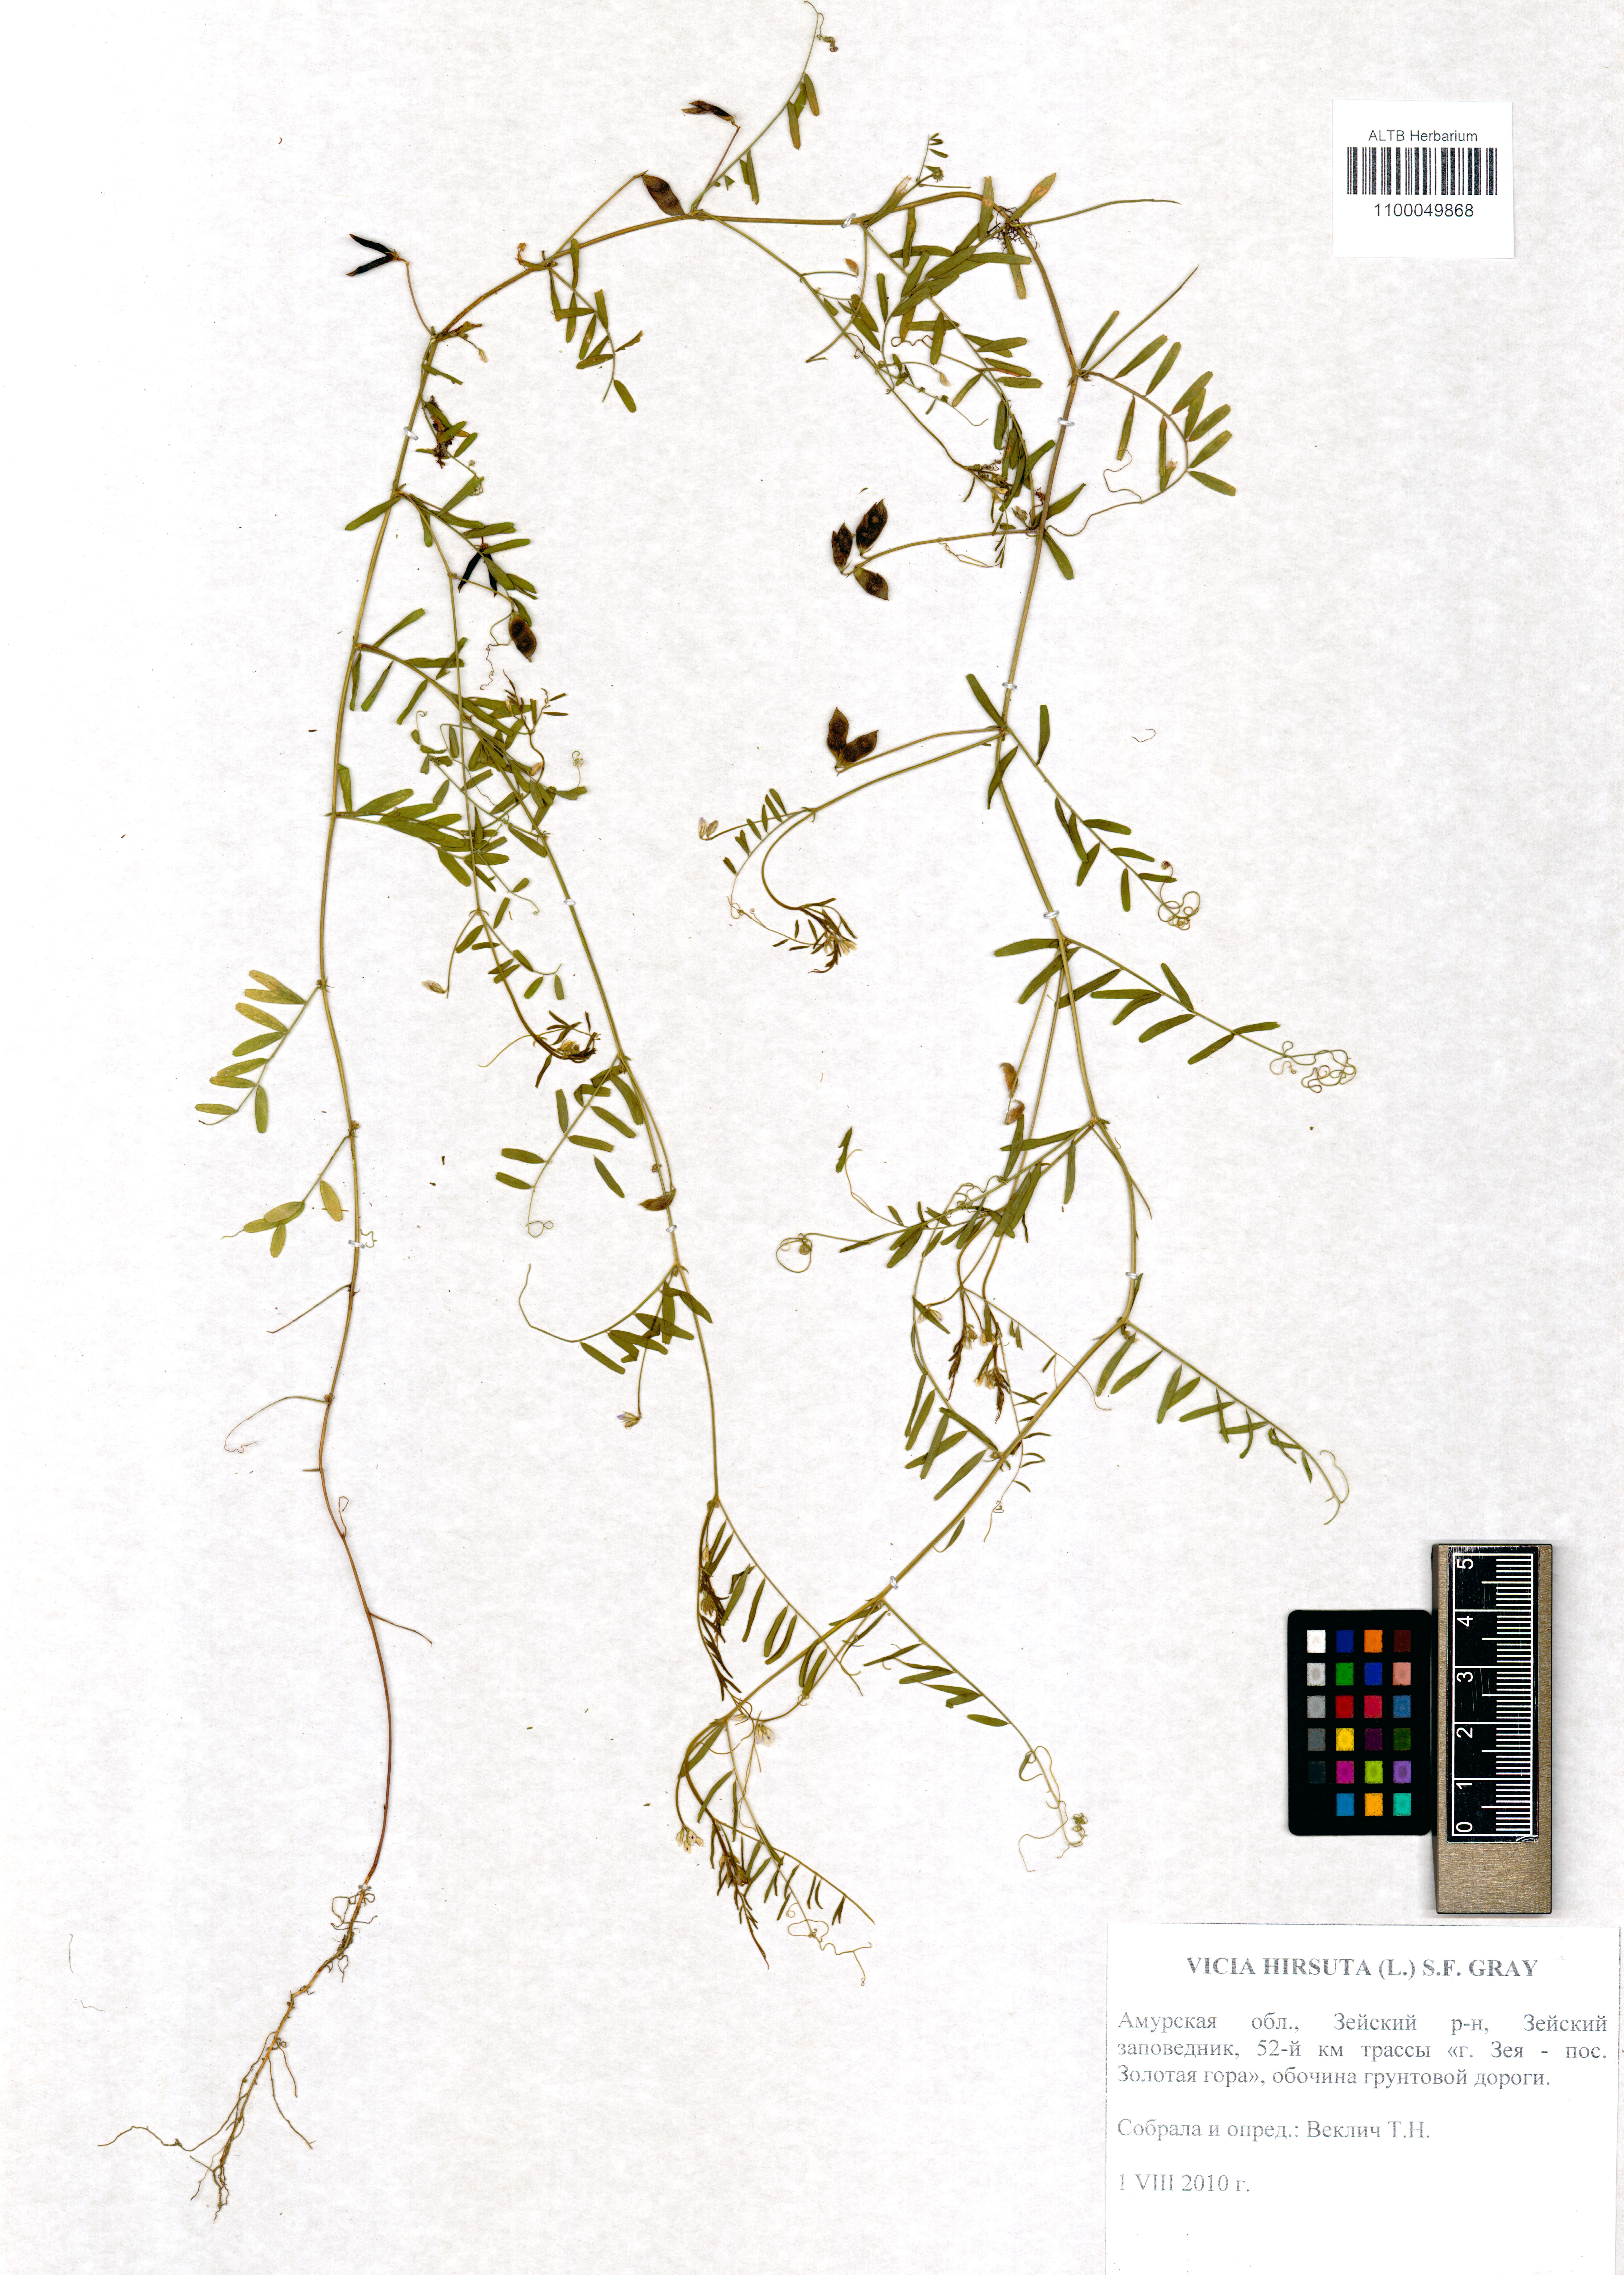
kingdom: Plantae
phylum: Tracheophyta
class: Magnoliopsida
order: Fabales
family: Fabaceae
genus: Vicia
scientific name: Vicia hirsuta
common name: Tiny vetch
